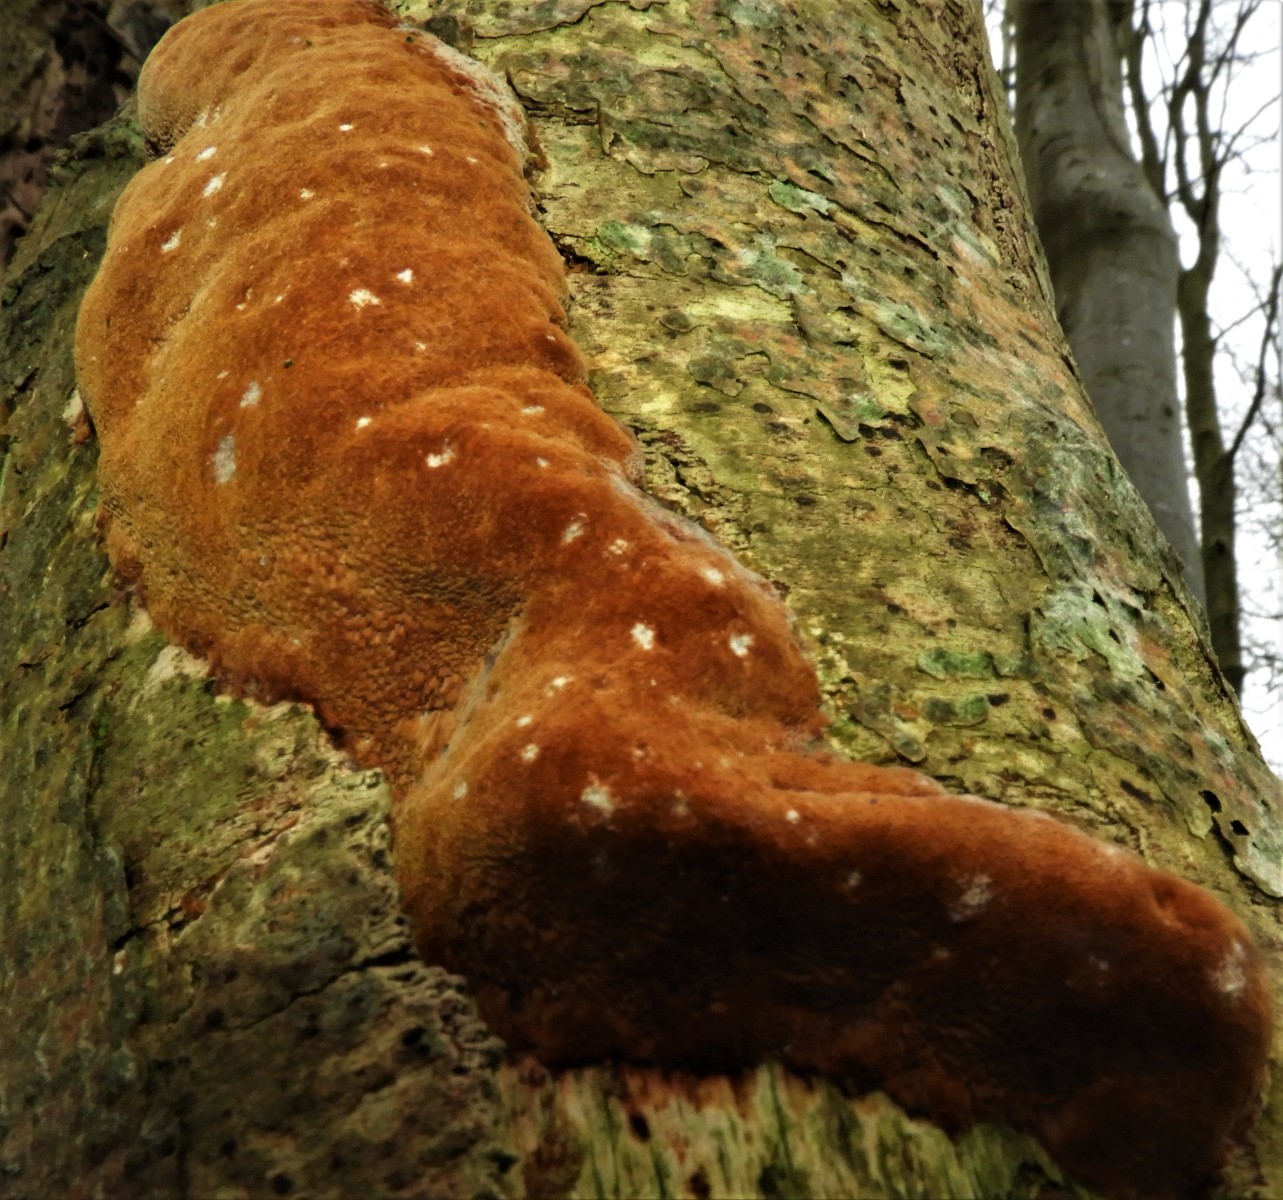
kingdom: Fungi
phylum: Basidiomycota
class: Agaricomycetes
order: Hymenochaetales
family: Hymenochaetaceae
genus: Fuscoporia
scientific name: Fuscoporia ferrea
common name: skorpe-ildporesvamp
